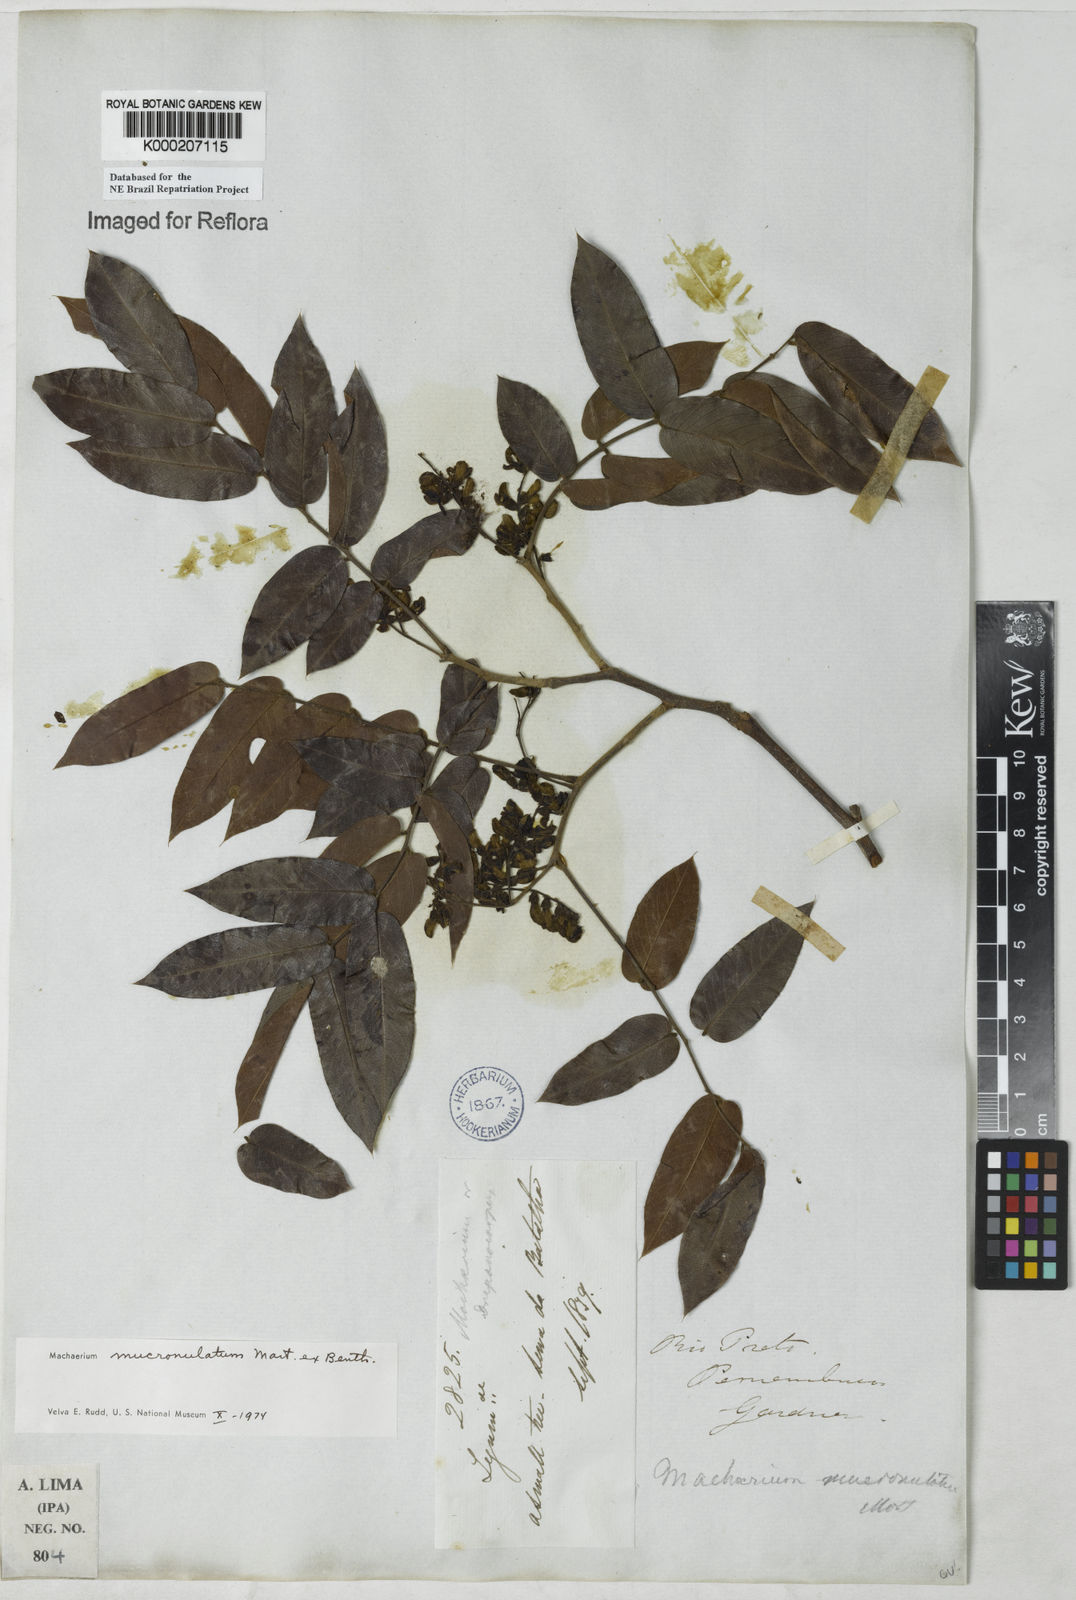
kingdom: Plantae
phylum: Tracheophyta
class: Magnoliopsida
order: Fabales
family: Fabaceae
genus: Machaerium
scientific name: Machaerium acutifolium
